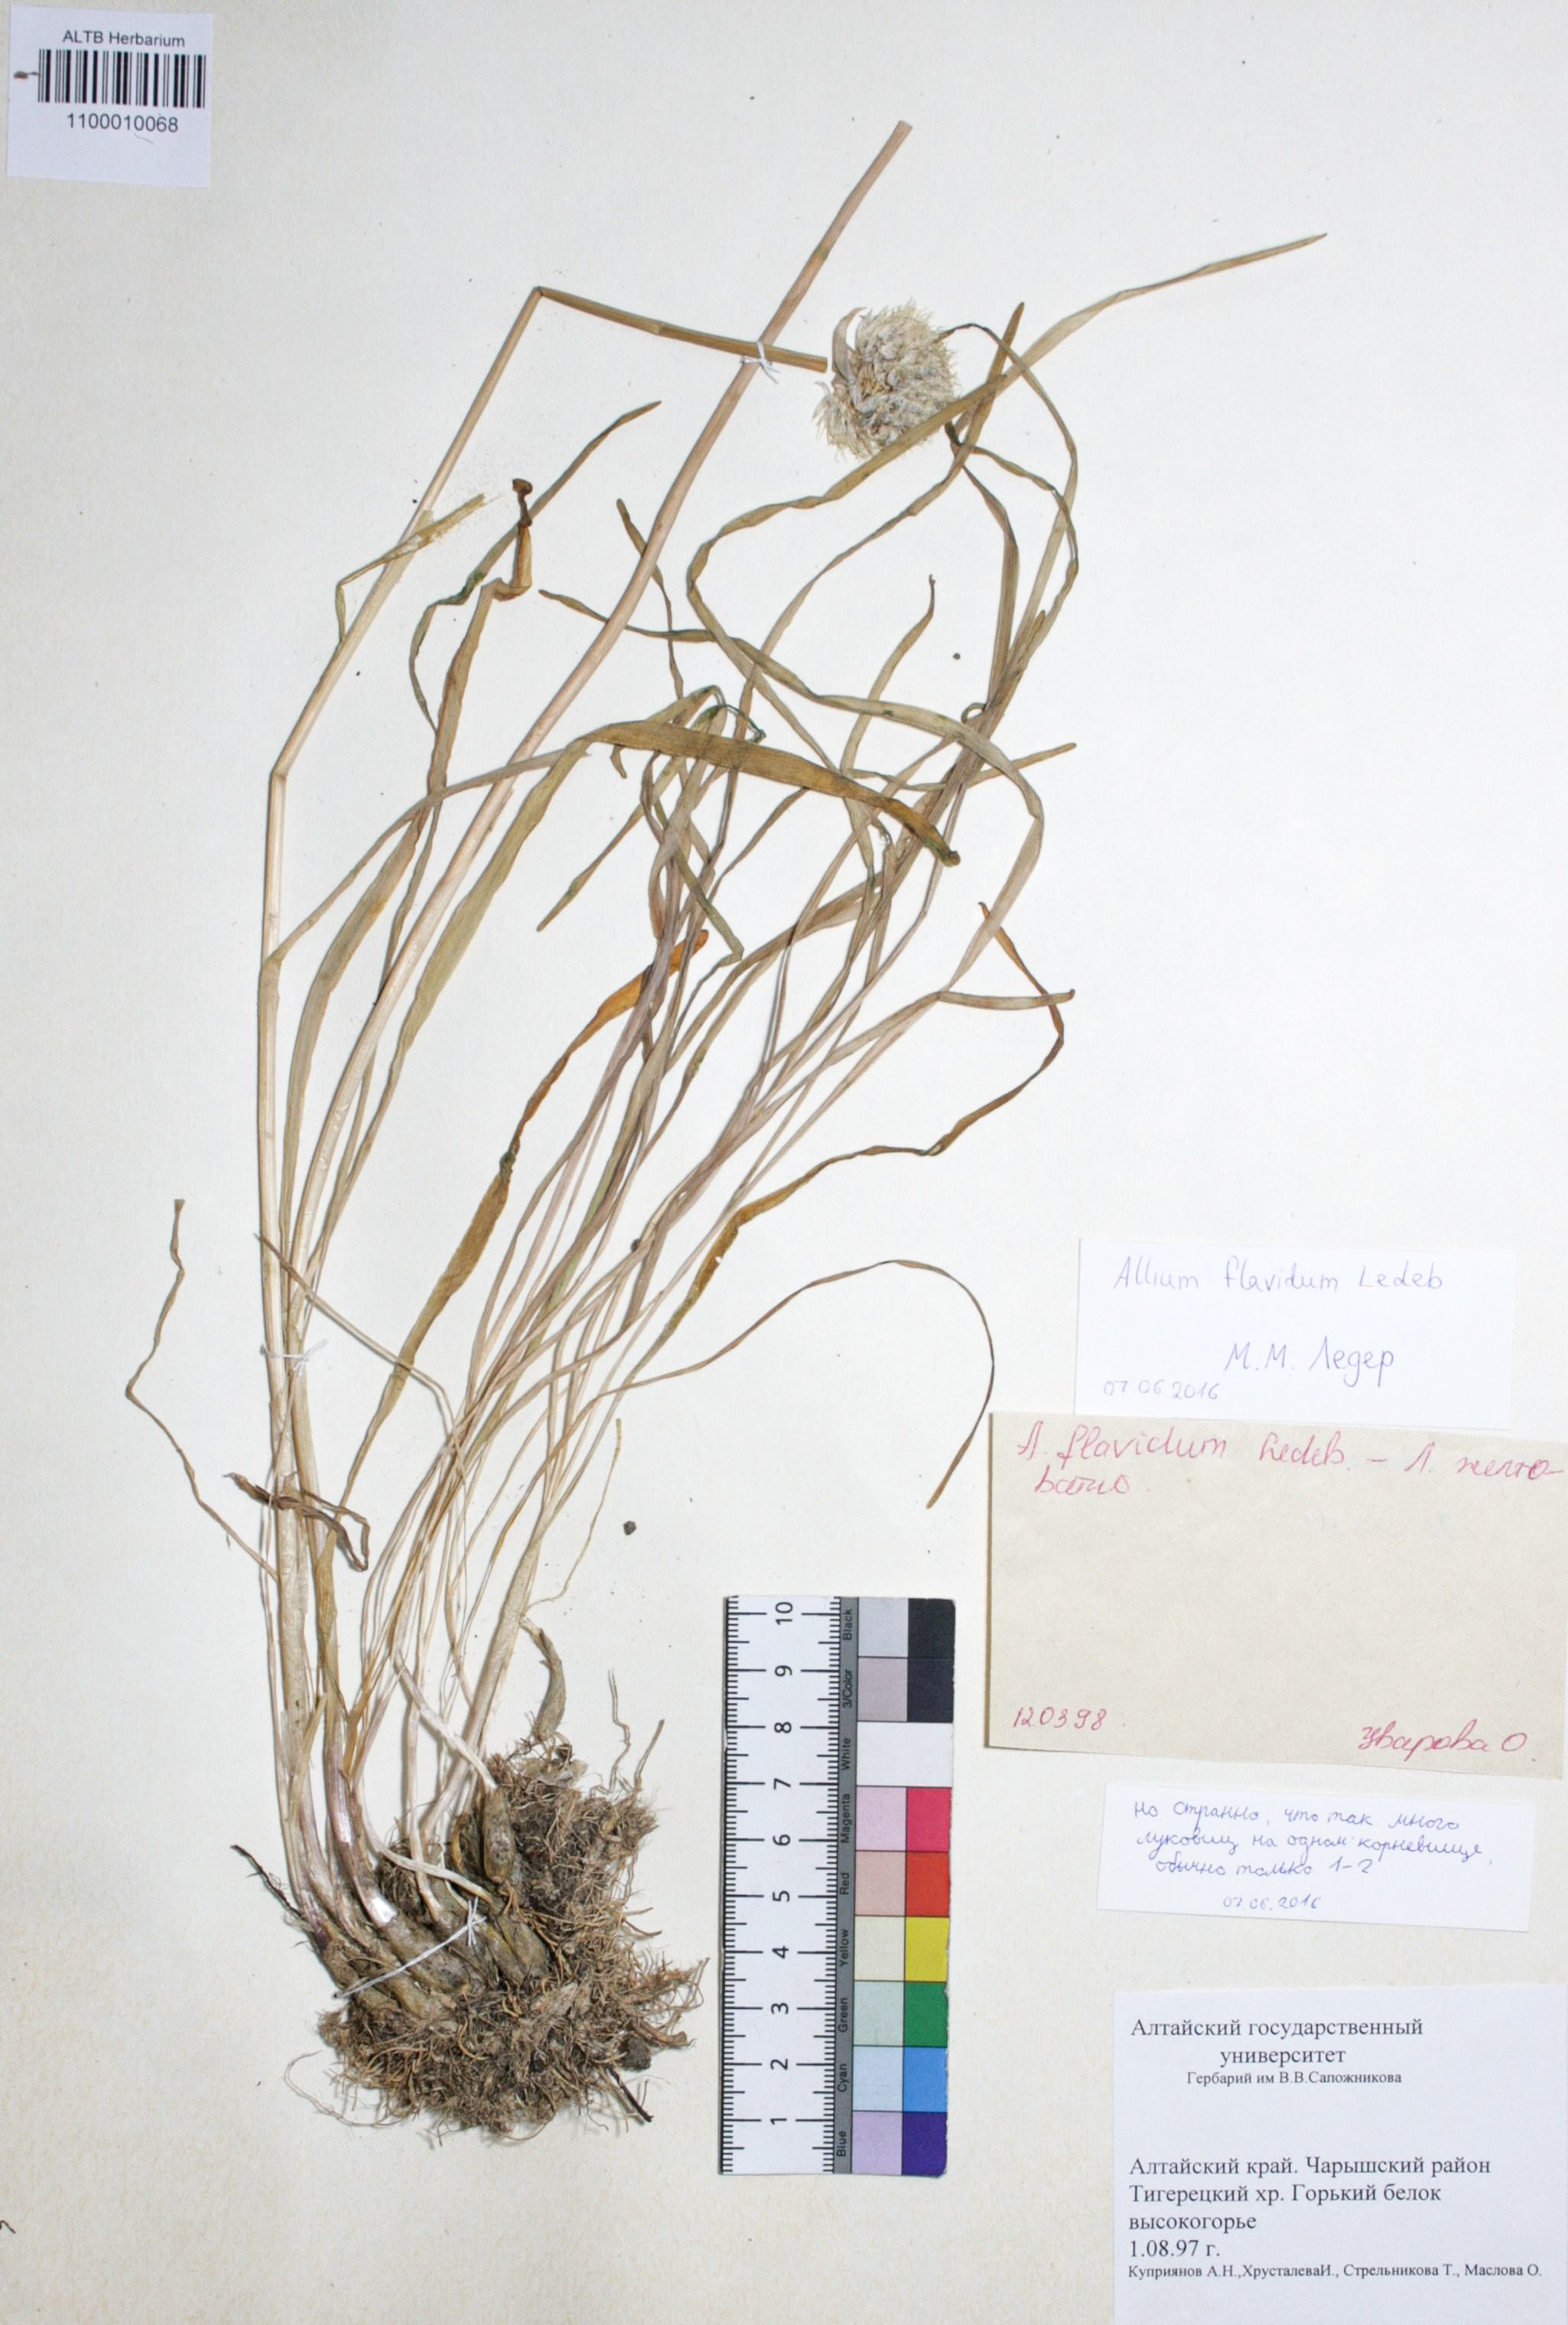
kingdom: Plantae
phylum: Tracheophyta
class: Liliopsida
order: Asparagales
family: Amaryllidaceae
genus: Allium
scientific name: Allium flavidum
